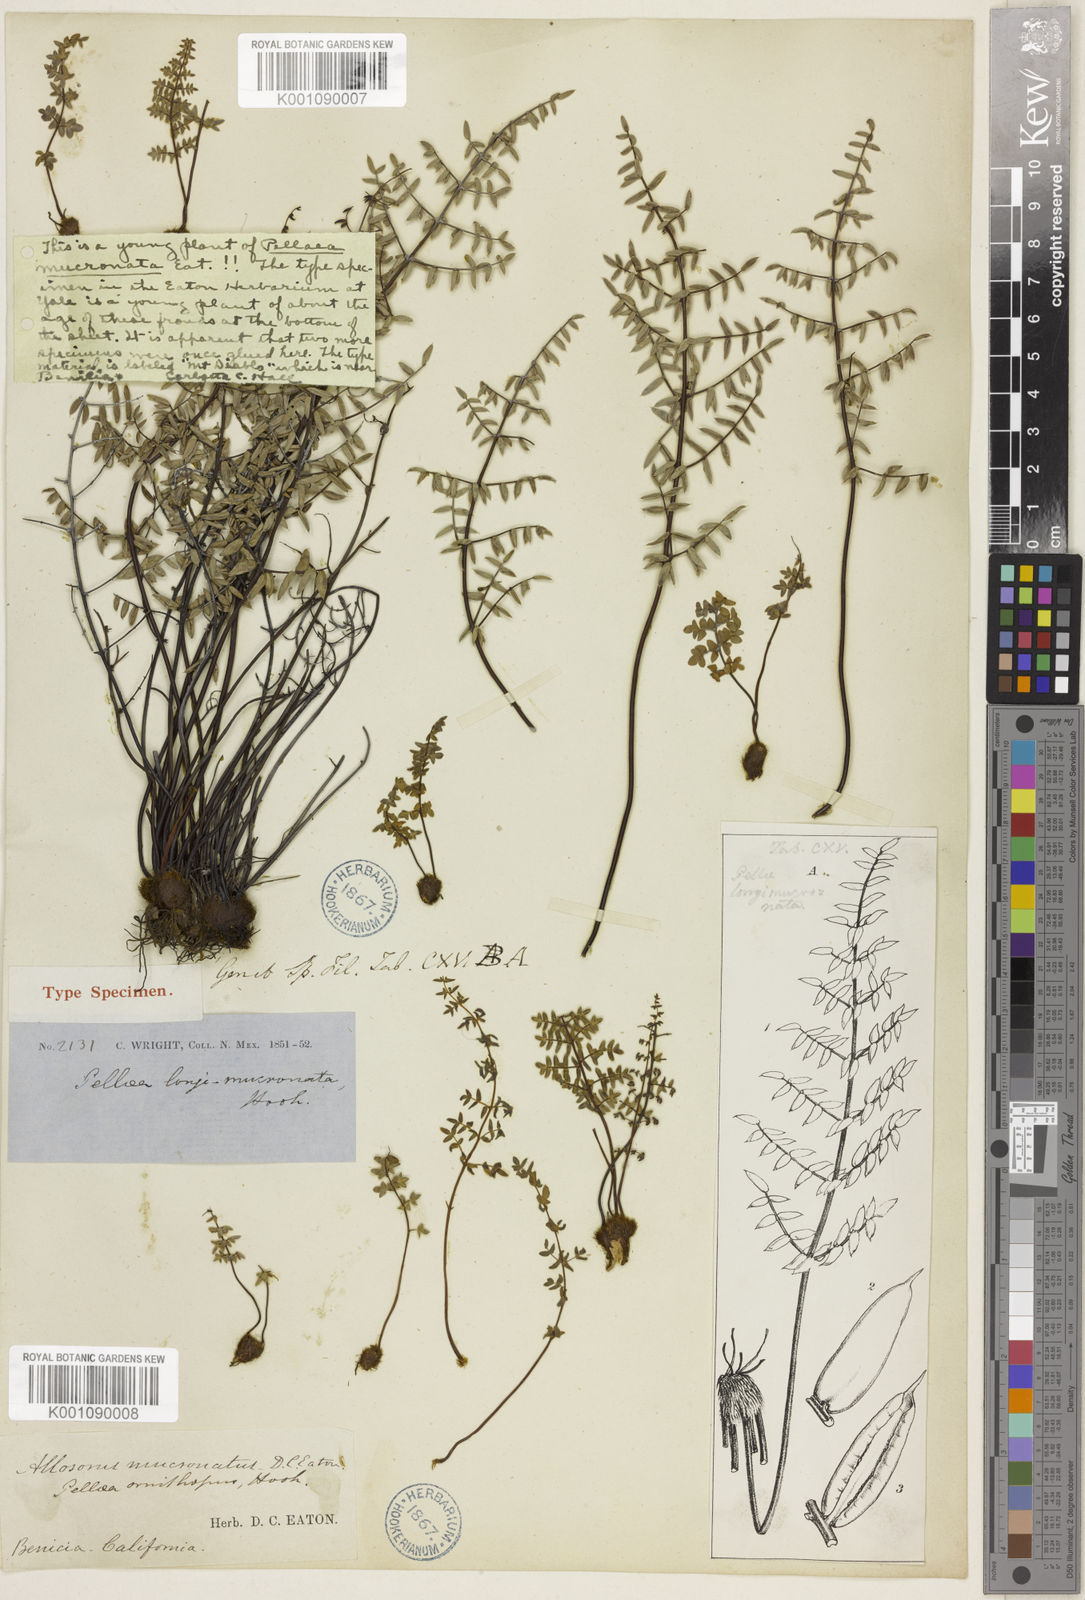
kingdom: Plantae
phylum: Tracheophyta
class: Polypodiopsida
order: Polypodiales
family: Pteridaceae
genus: Pellaea
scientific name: Pellaea mucronata
